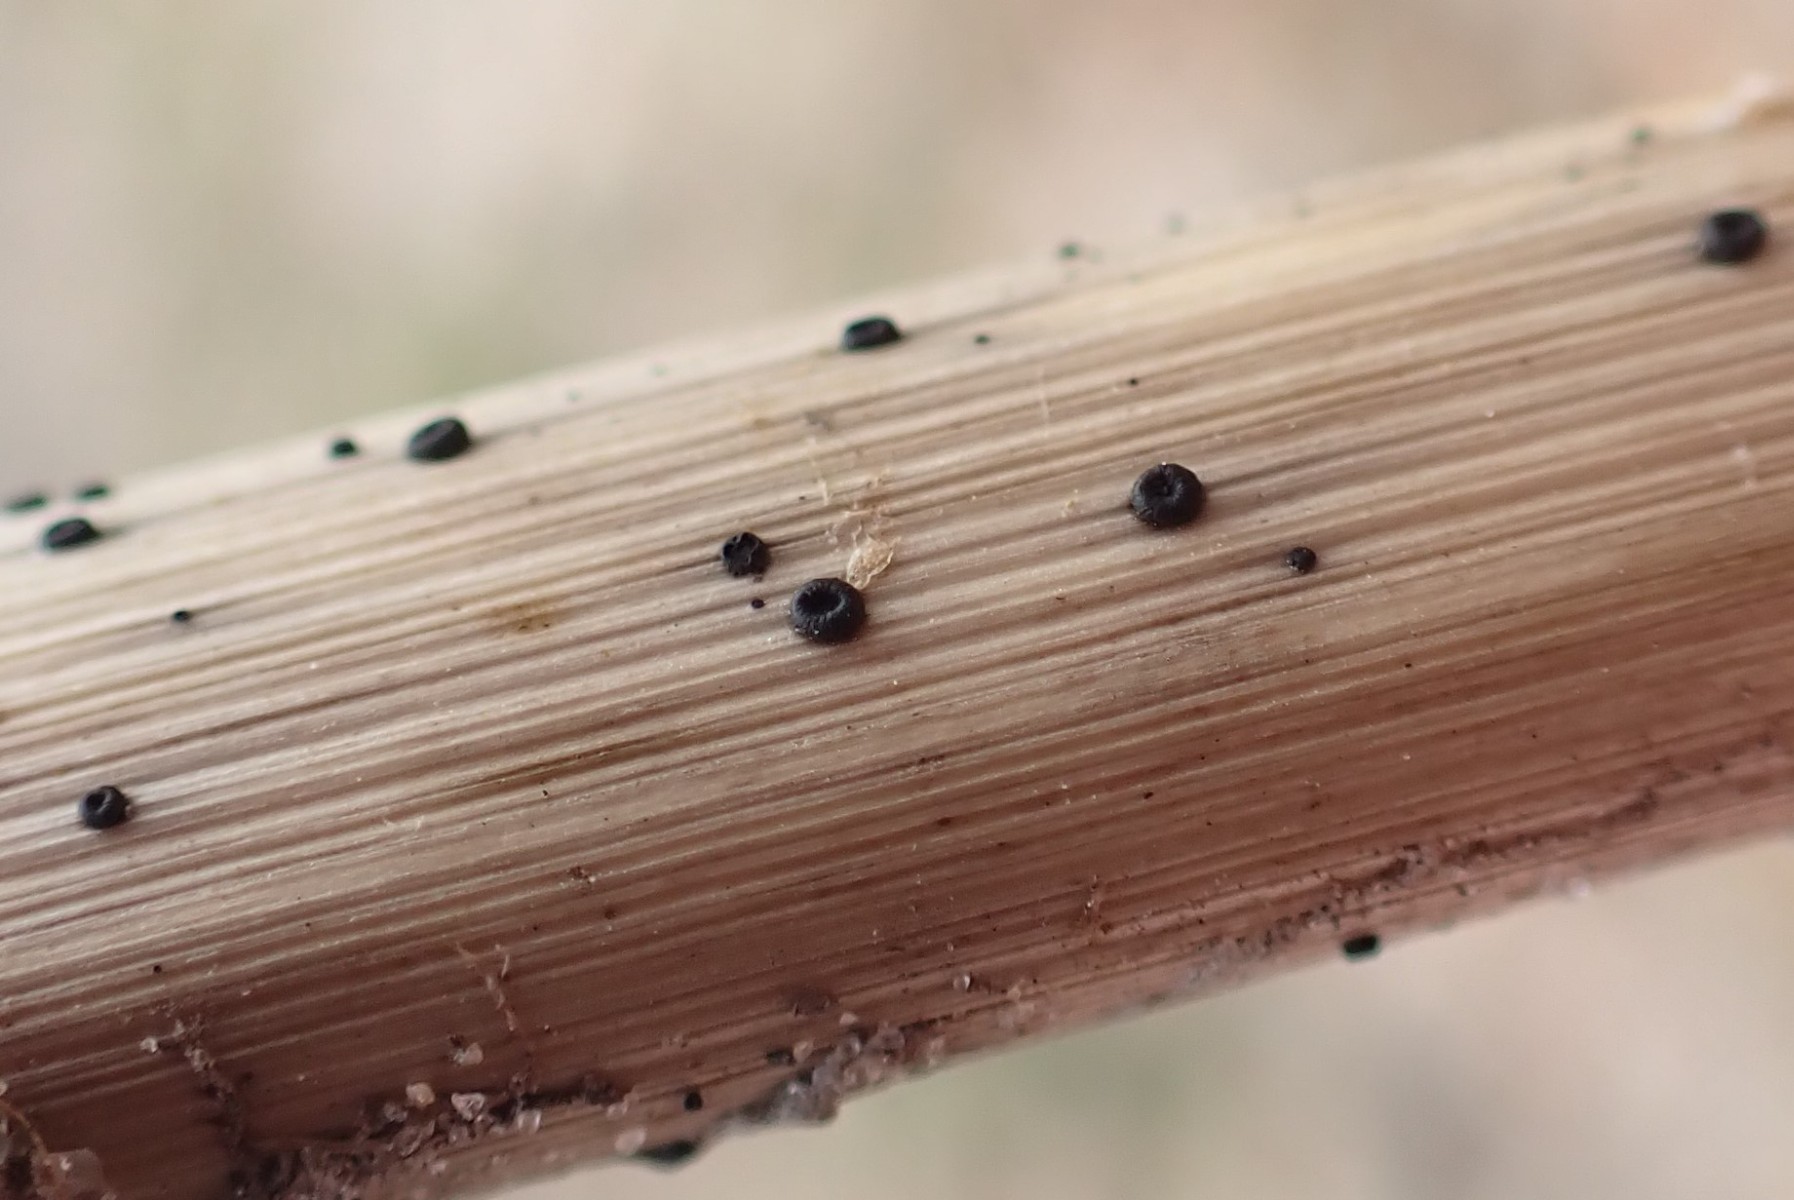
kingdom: Fungi
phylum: Ascomycota
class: Leotiomycetes
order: Helotiales
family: Heterosphaeriaceae
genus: Heterosphaeria
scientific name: Heterosphaeria
